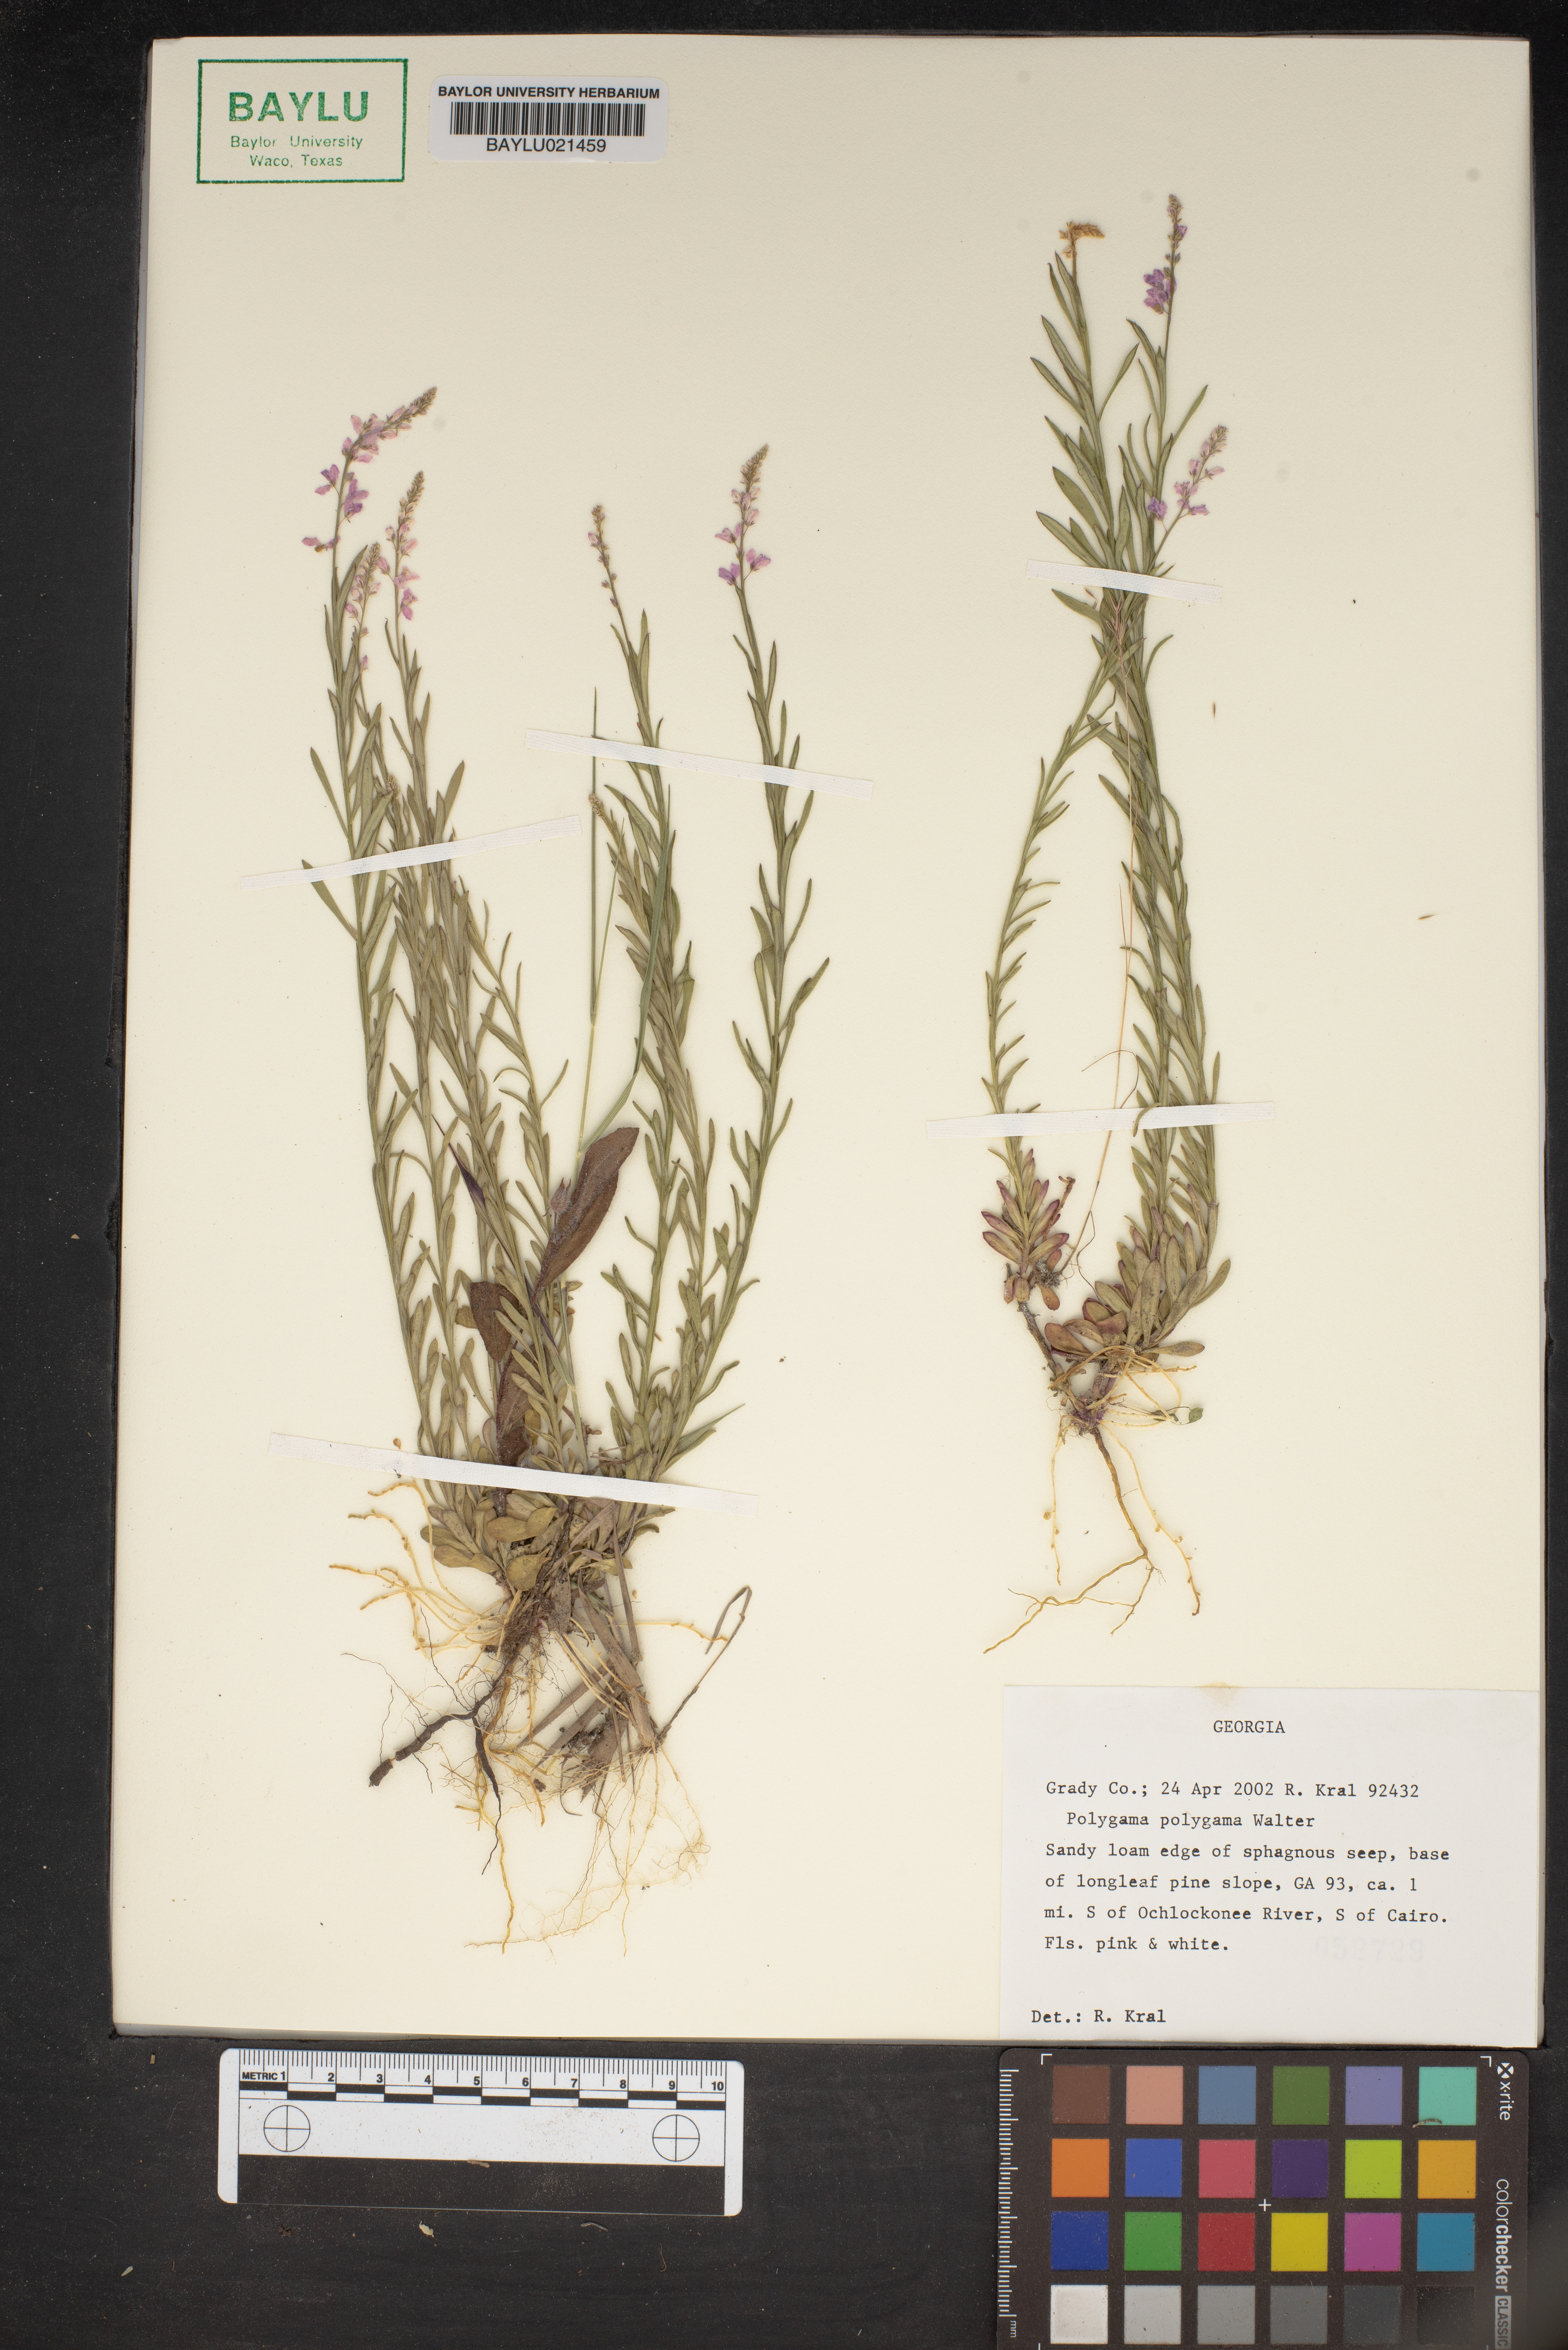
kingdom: Plantae
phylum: Tracheophyta
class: Magnoliopsida
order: Fabales
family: Polygalaceae
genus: Polygala
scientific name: Polygala polygama
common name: Bitter milkwort
